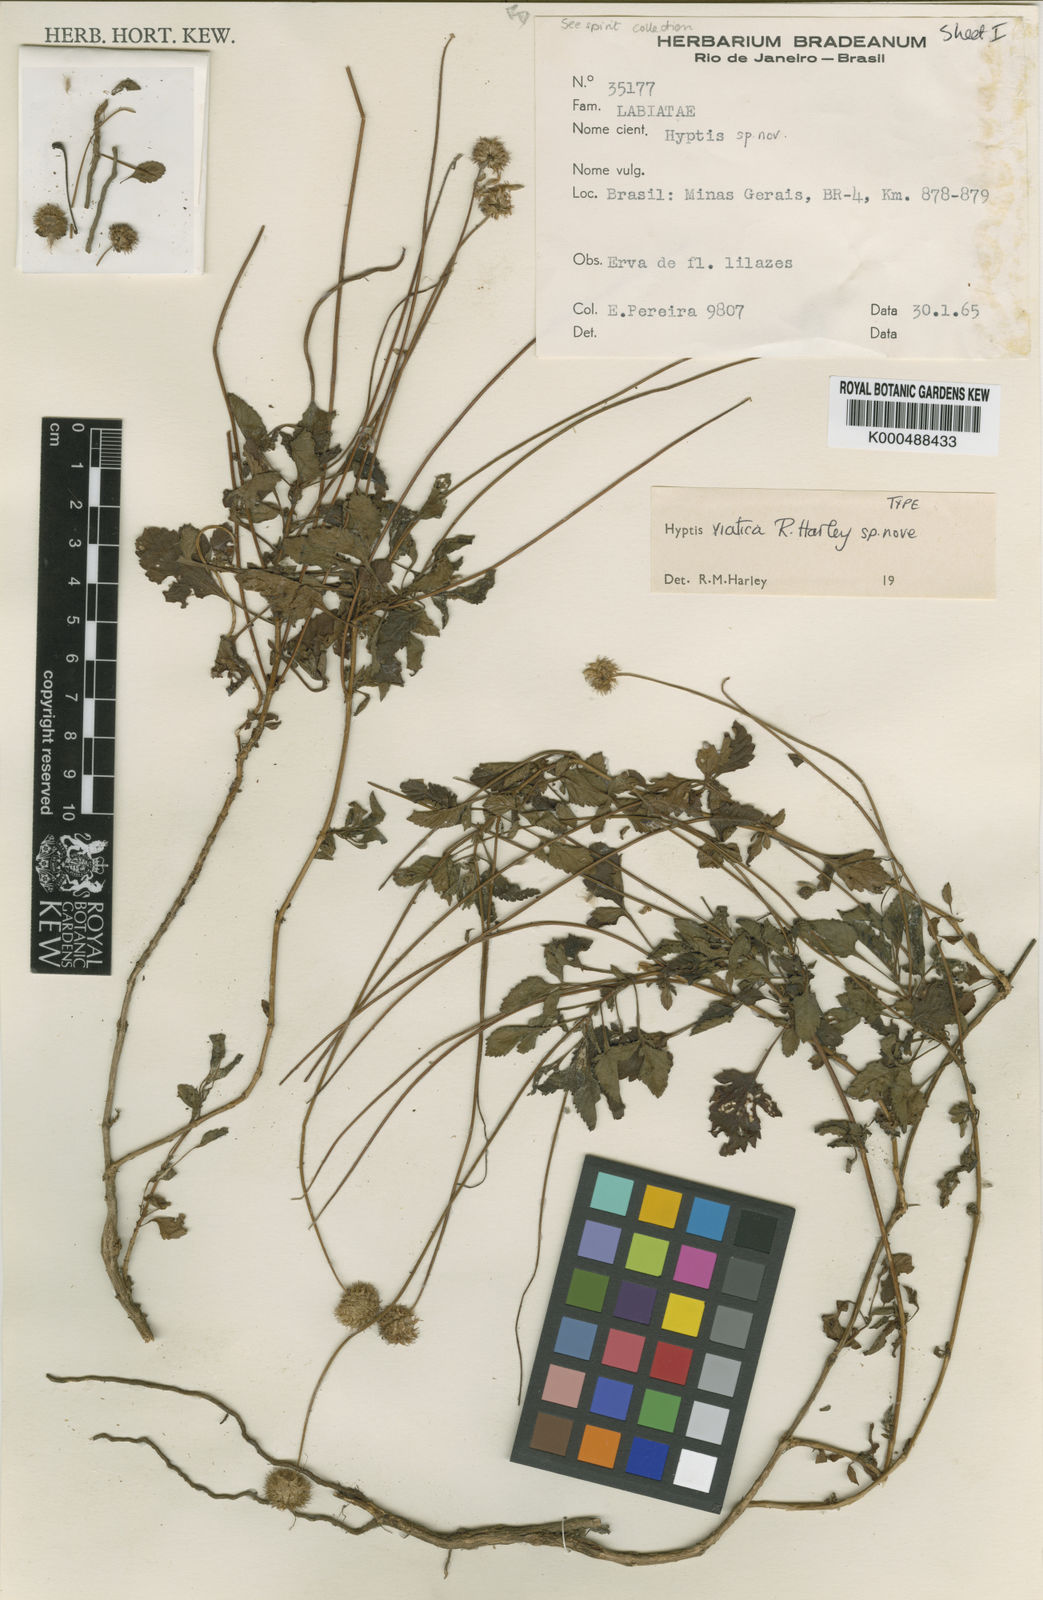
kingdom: Plantae
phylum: Tracheophyta
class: Magnoliopsida
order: Lamiales
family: Lamiaceae
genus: Cyanocephalus
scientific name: Cyanocephalus viaticus
